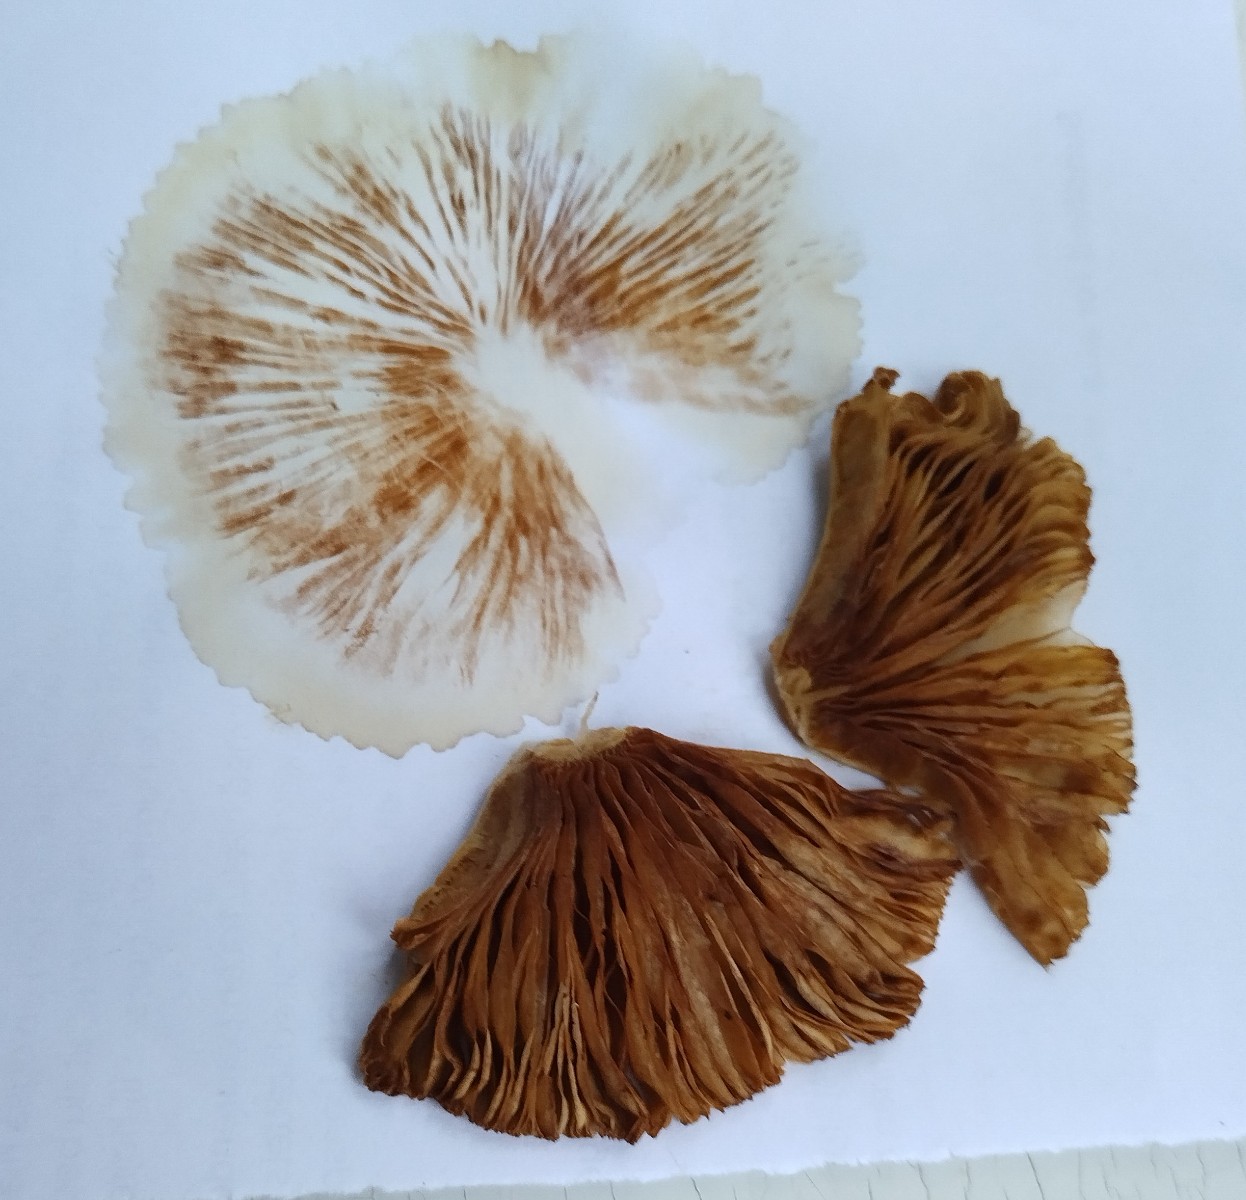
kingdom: Fungi
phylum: Basidiomycota
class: Agaricomycetes
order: Agaricales
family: Bolbitiaceae
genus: Bolbitius
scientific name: Bolbitius titubans
